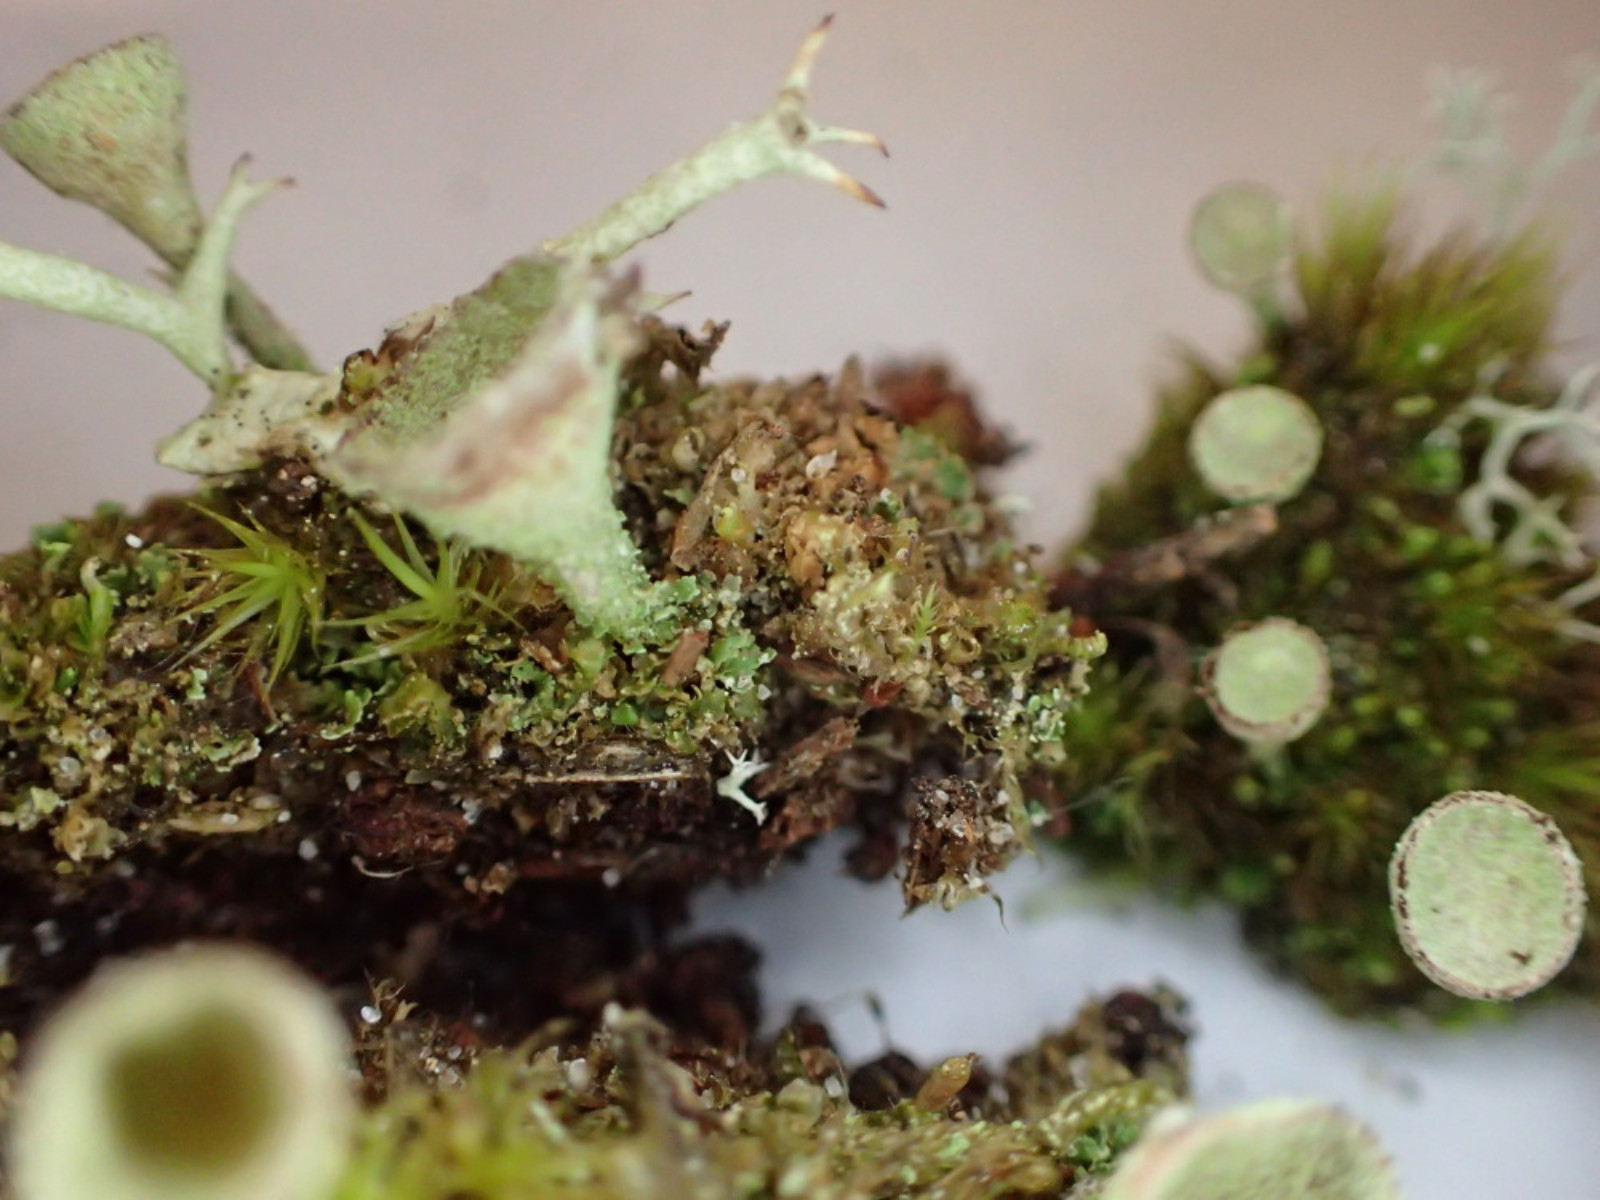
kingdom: Fungi
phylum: Ascomycota
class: Lecanoromycetes
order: Lecanorales
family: Cladoniaceae
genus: Cladonia
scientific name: Cladonia
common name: brungrøn bægerlav
